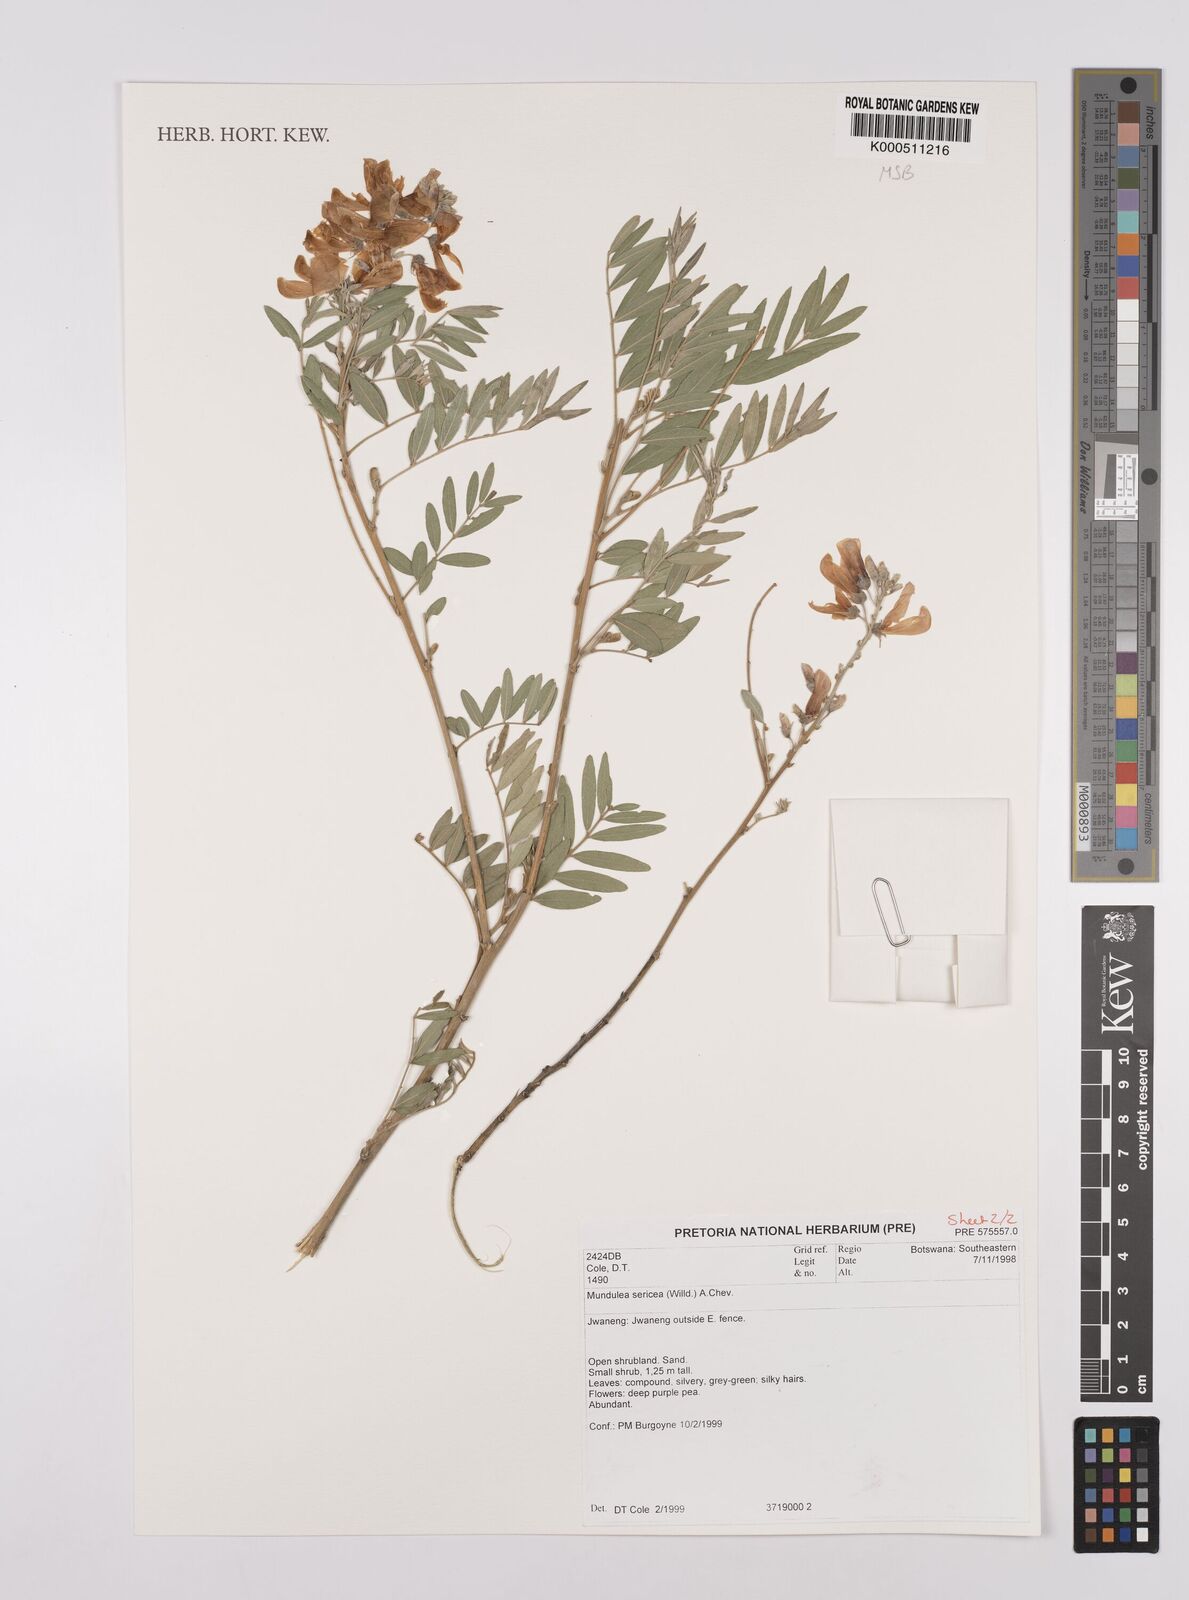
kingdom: Plantae
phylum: Tracheophyta
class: Magnoliopsida
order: Fabales
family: Fabaceae
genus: Mundulea
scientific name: Mundulea sericea
